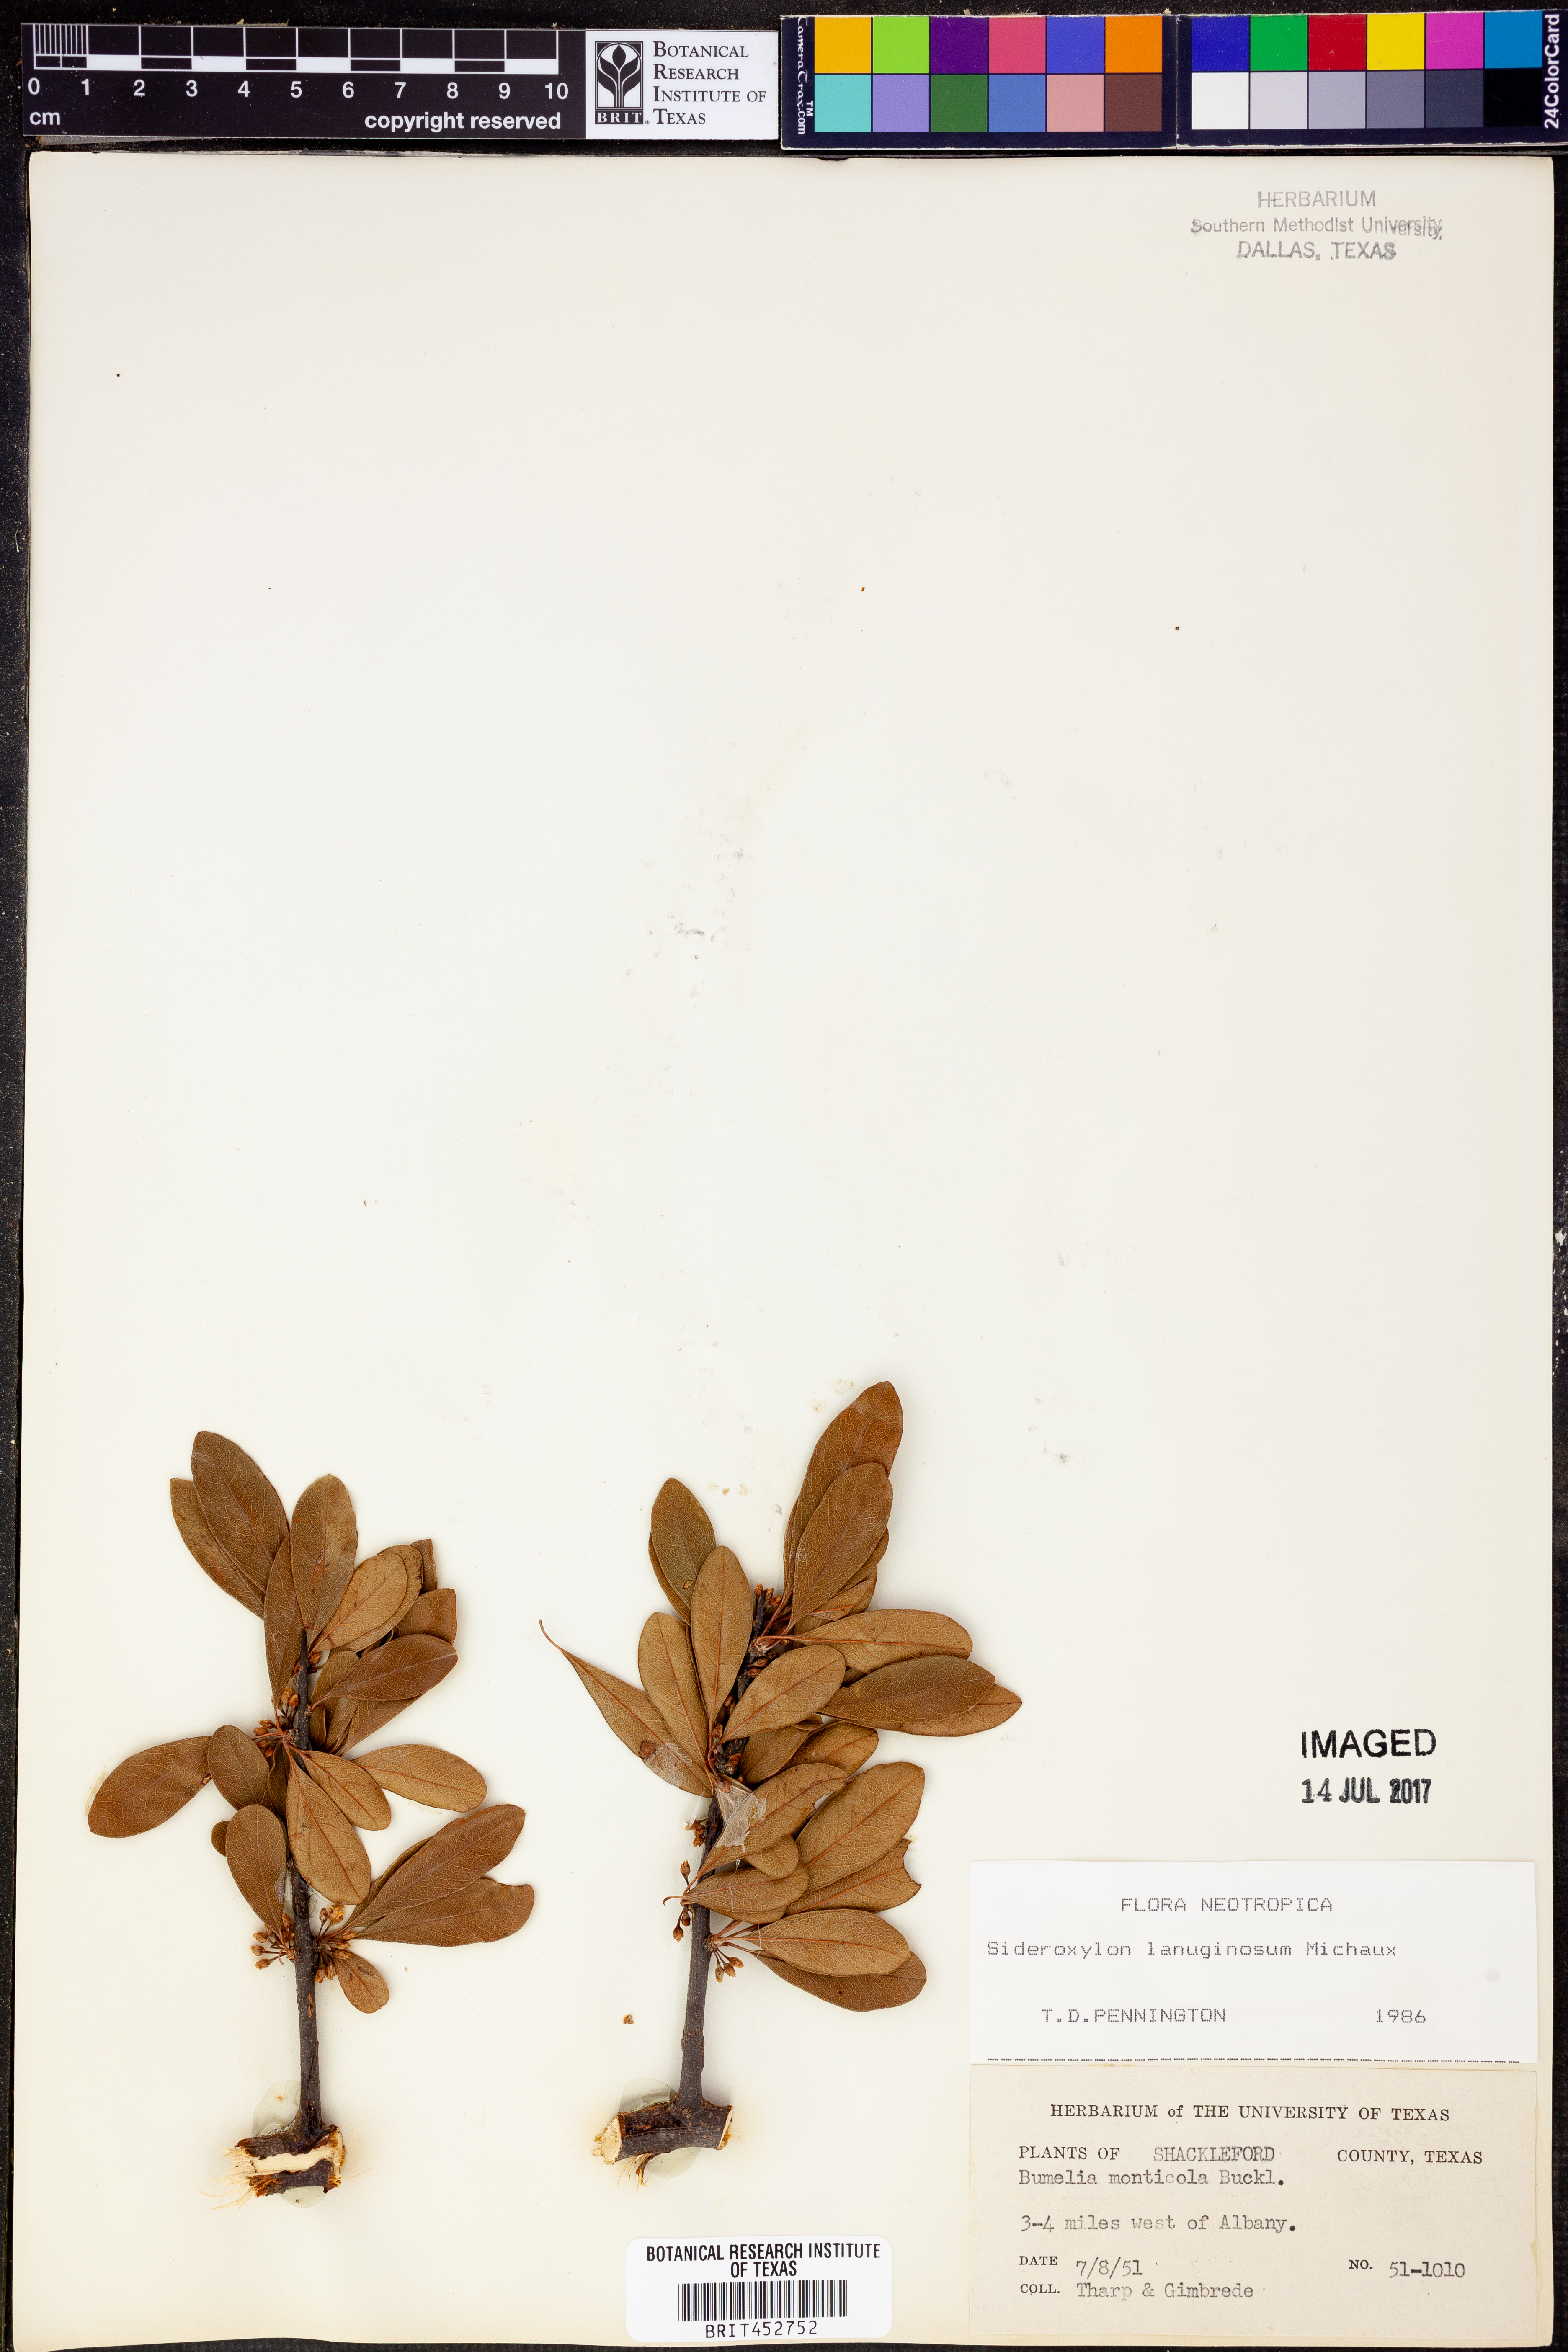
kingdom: Plantae
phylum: Tracheophyta
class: Magnoliopsida
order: Ericales
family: Sapotaceae
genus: Sideroxylon
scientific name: Sideroxylon lanuginosum
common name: Chittamwood
